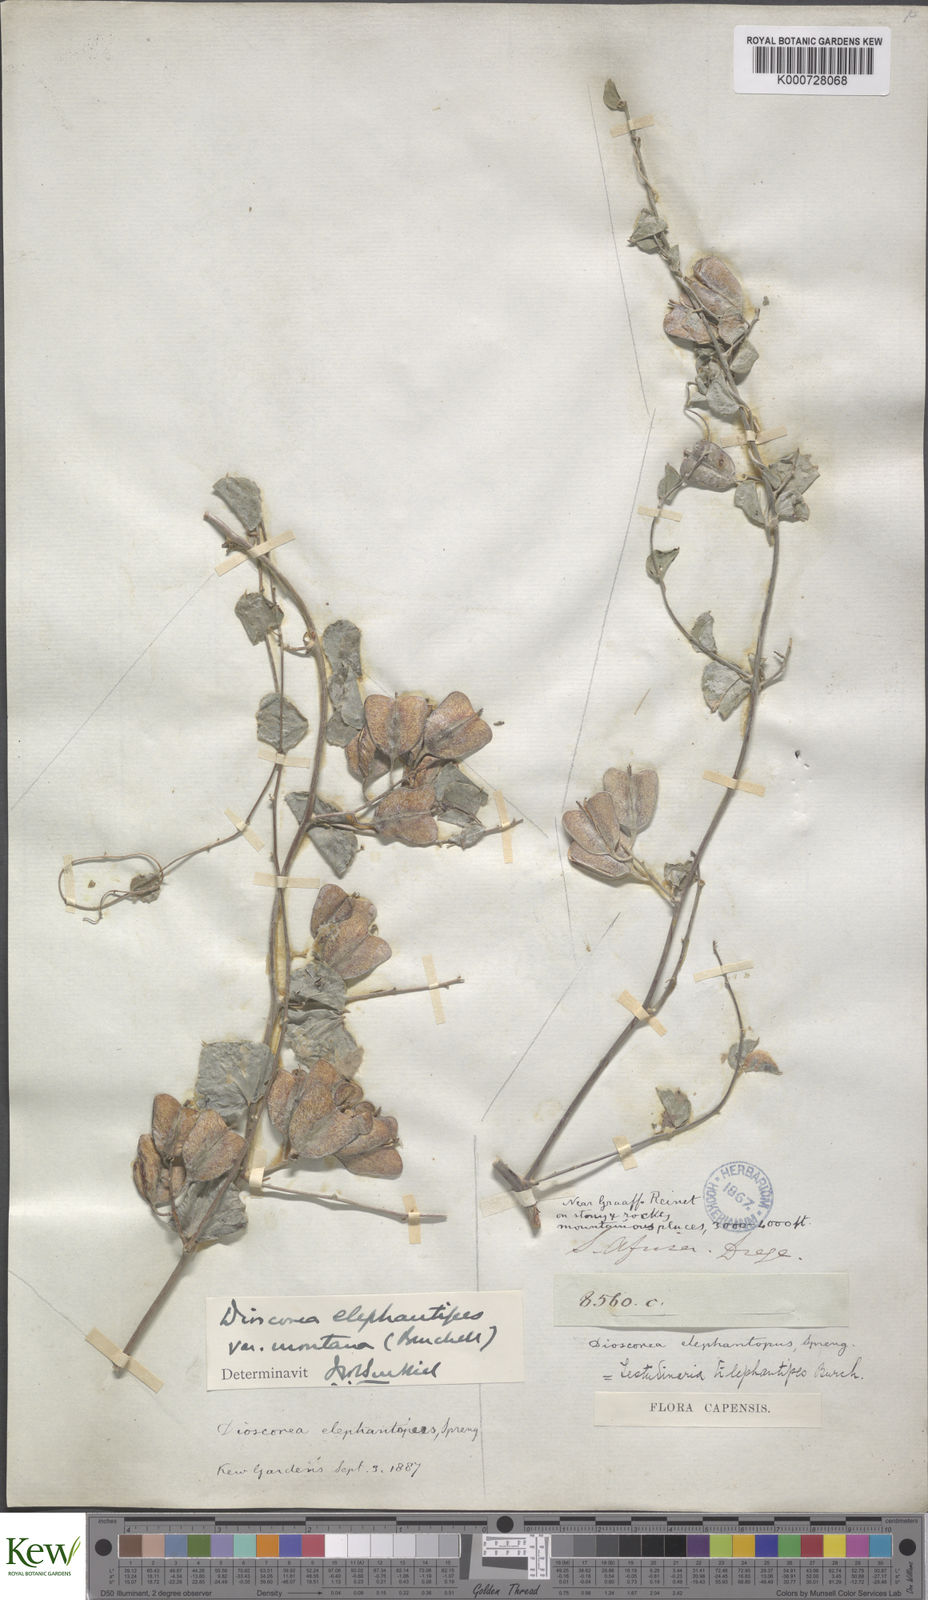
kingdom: Plantae
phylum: Tracheophyta
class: Liliopsida
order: Dioscoreales
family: Dioscoreaceae
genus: Dioscorea
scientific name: Dioscorea
